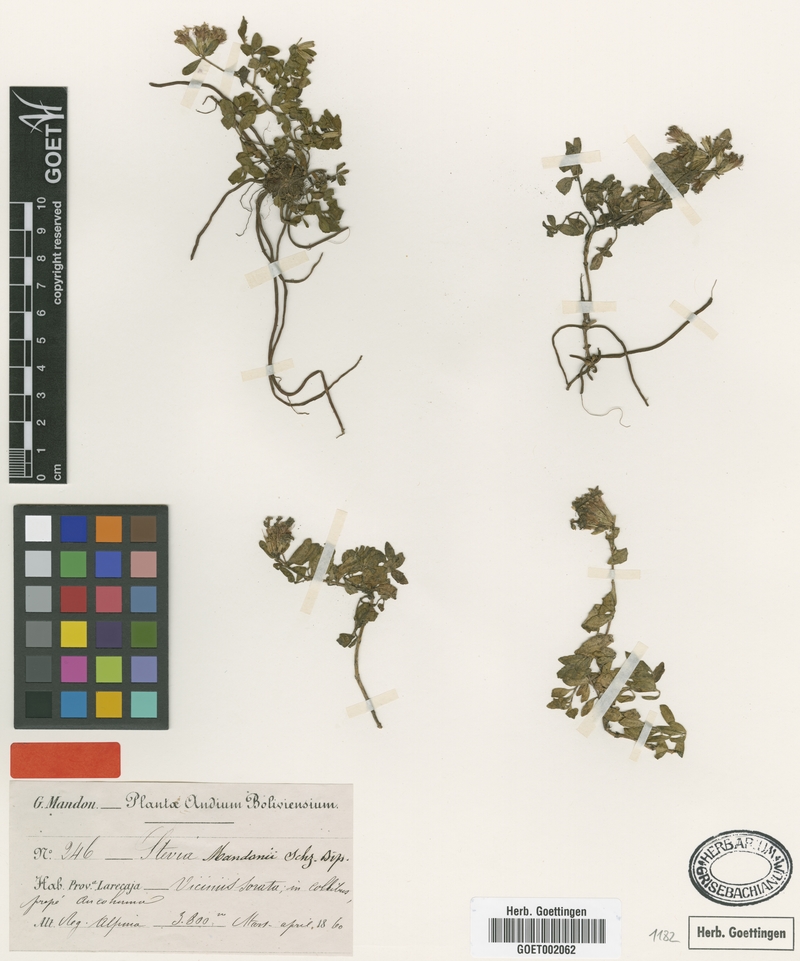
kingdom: Plantae
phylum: Tracheophyta
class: Magnoliopsida
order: Asterales
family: Asteraceae
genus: Stevia
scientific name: Stevia mandonii
